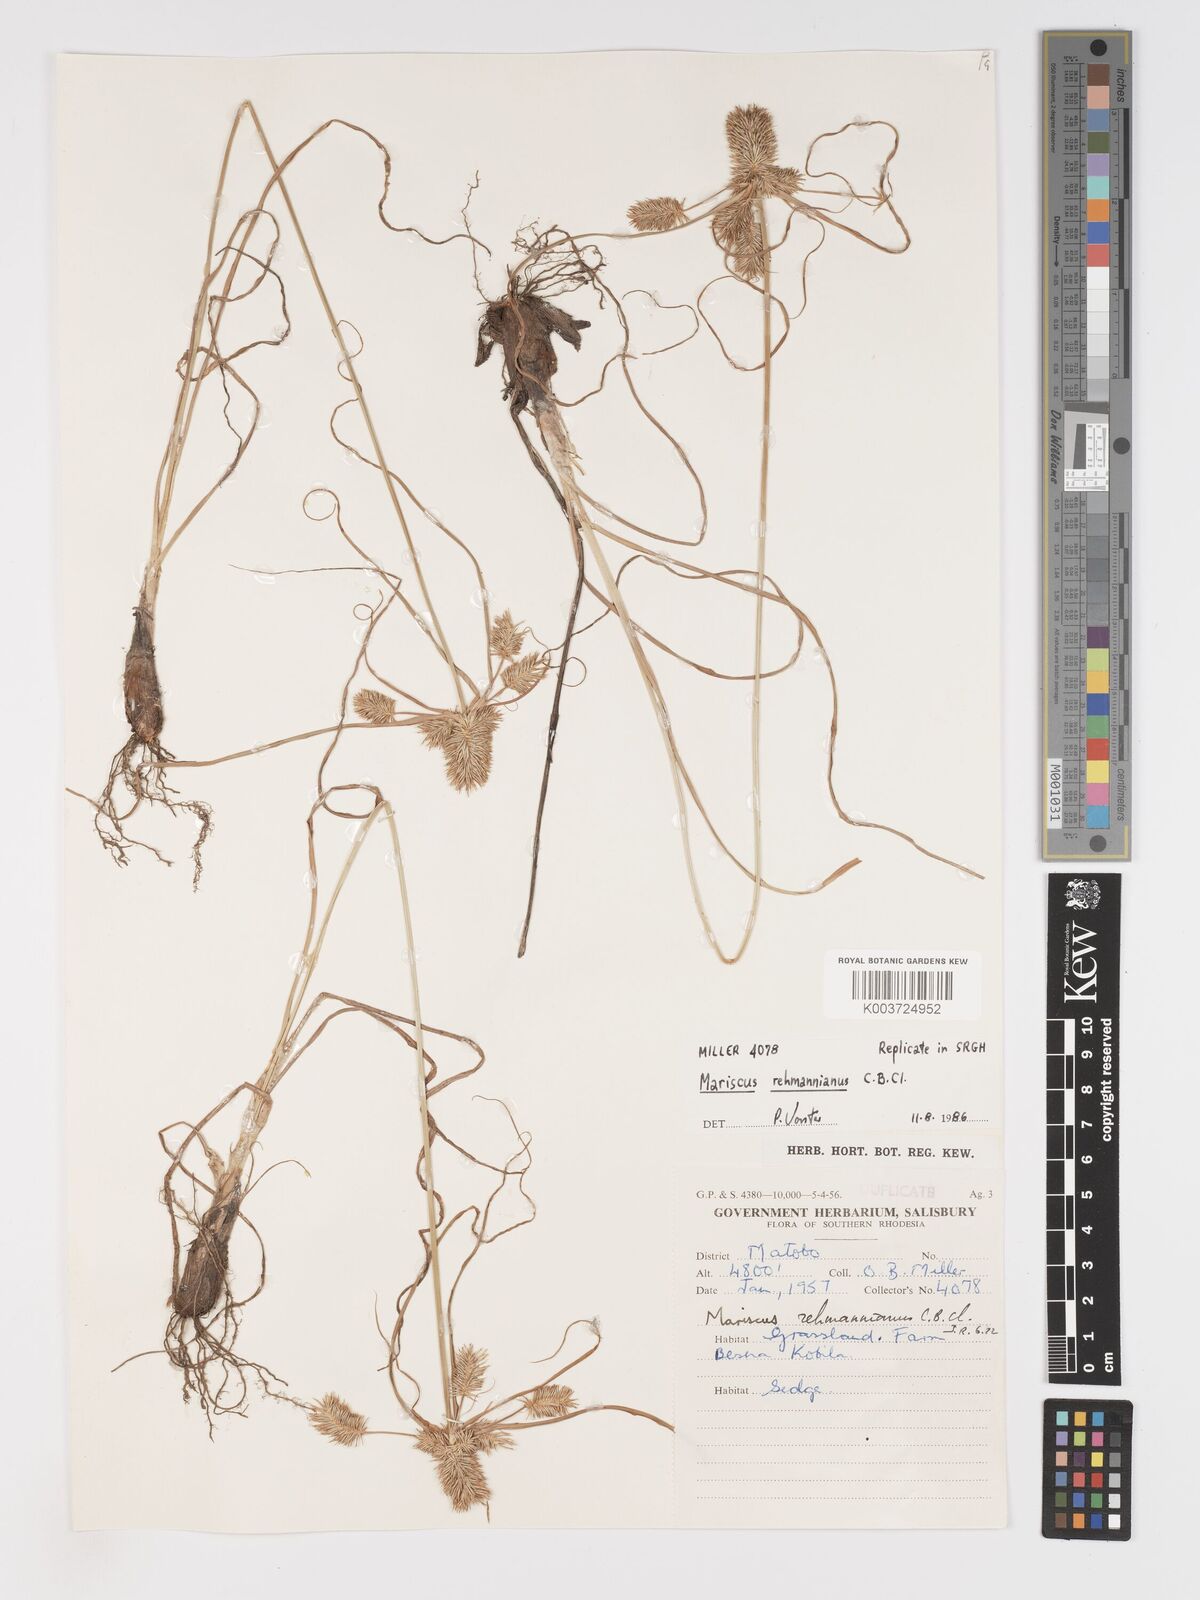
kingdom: Plantae
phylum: Tracheophyta
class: Liliopsida
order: Poales
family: Cyperaceae
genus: Cyperus
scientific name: Cyperus indecorus
